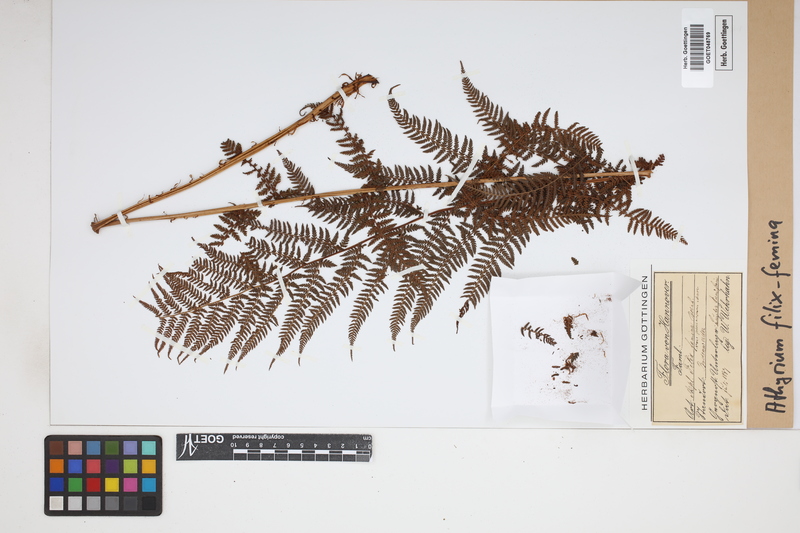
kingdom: Plantae
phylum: Tracheophyta
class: Polypodiopsida
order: Polypodiales
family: Athyriaceae
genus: Athyrium
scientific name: Athyrium filix-femina
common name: Lady fern
